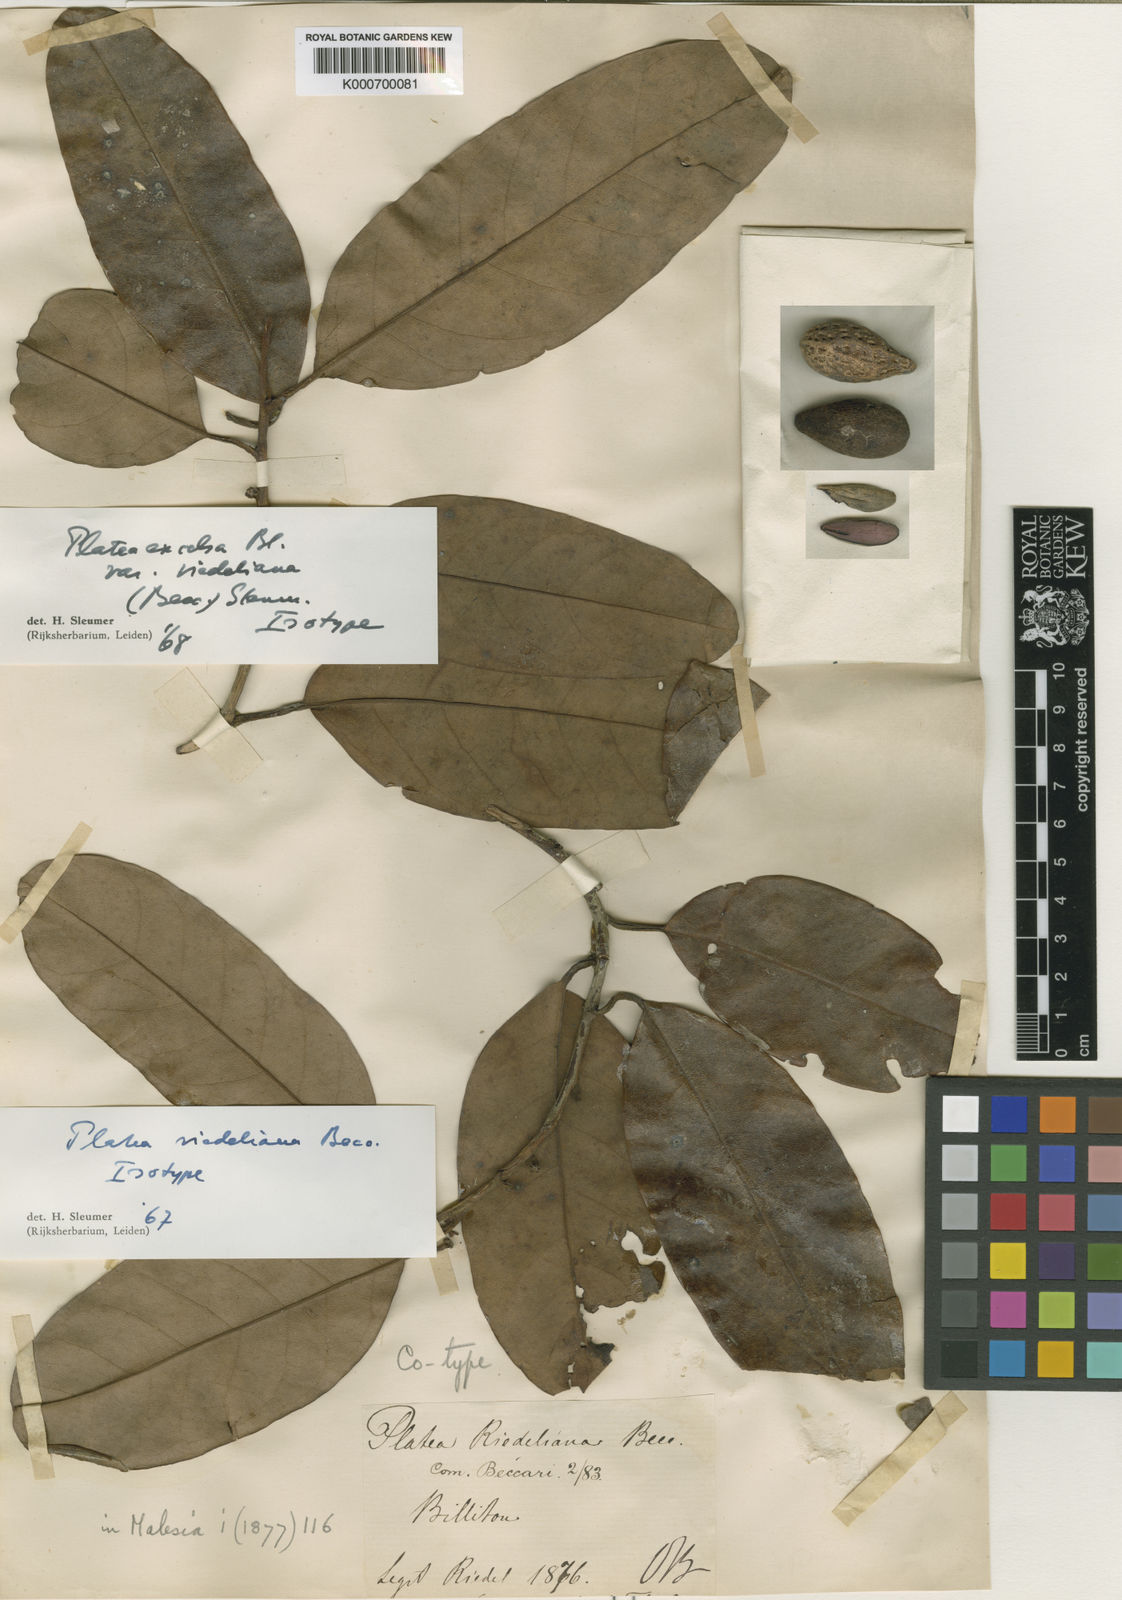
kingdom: Plantae
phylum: Tracheophyta
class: Magnoliopsida
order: Metteniusales
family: Metteniusaceae
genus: Platea
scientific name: Platea excelsa
